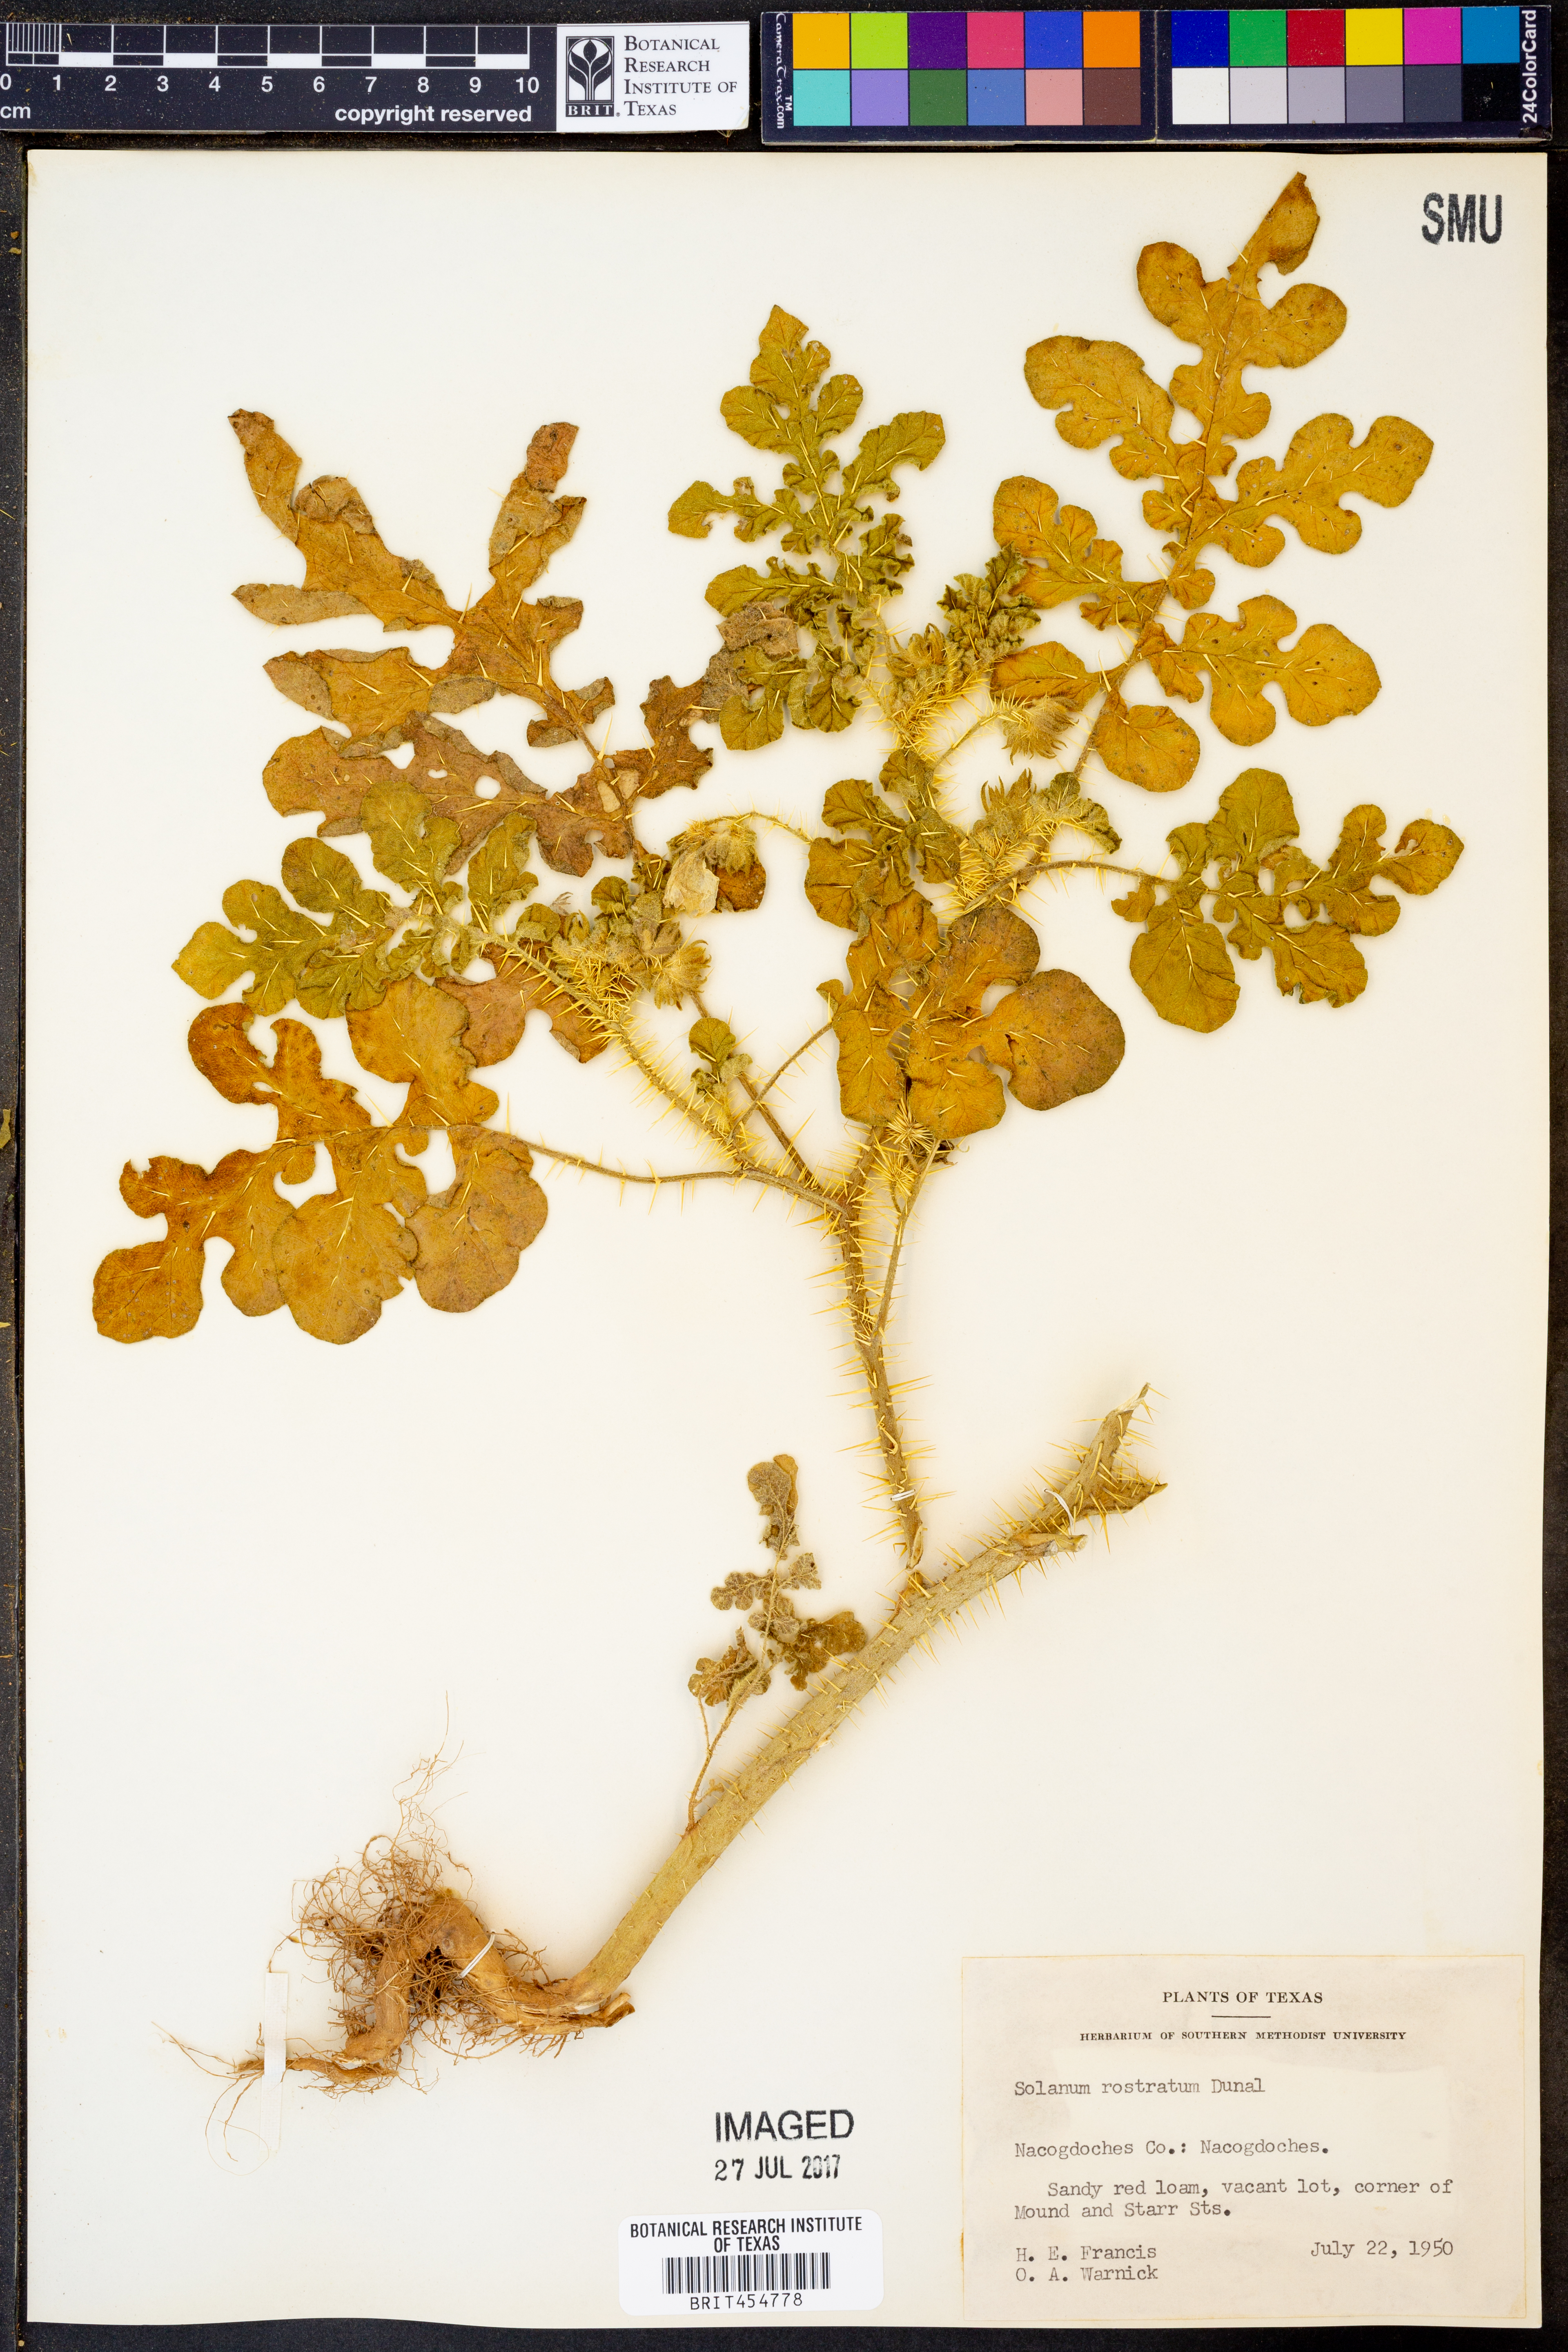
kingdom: Plantae
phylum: Tracheophyta
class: Magnoliopsida
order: Solanales
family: Solanaceae
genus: Solanum
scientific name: Solanum angustifolium
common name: Buffalobur nightshade
